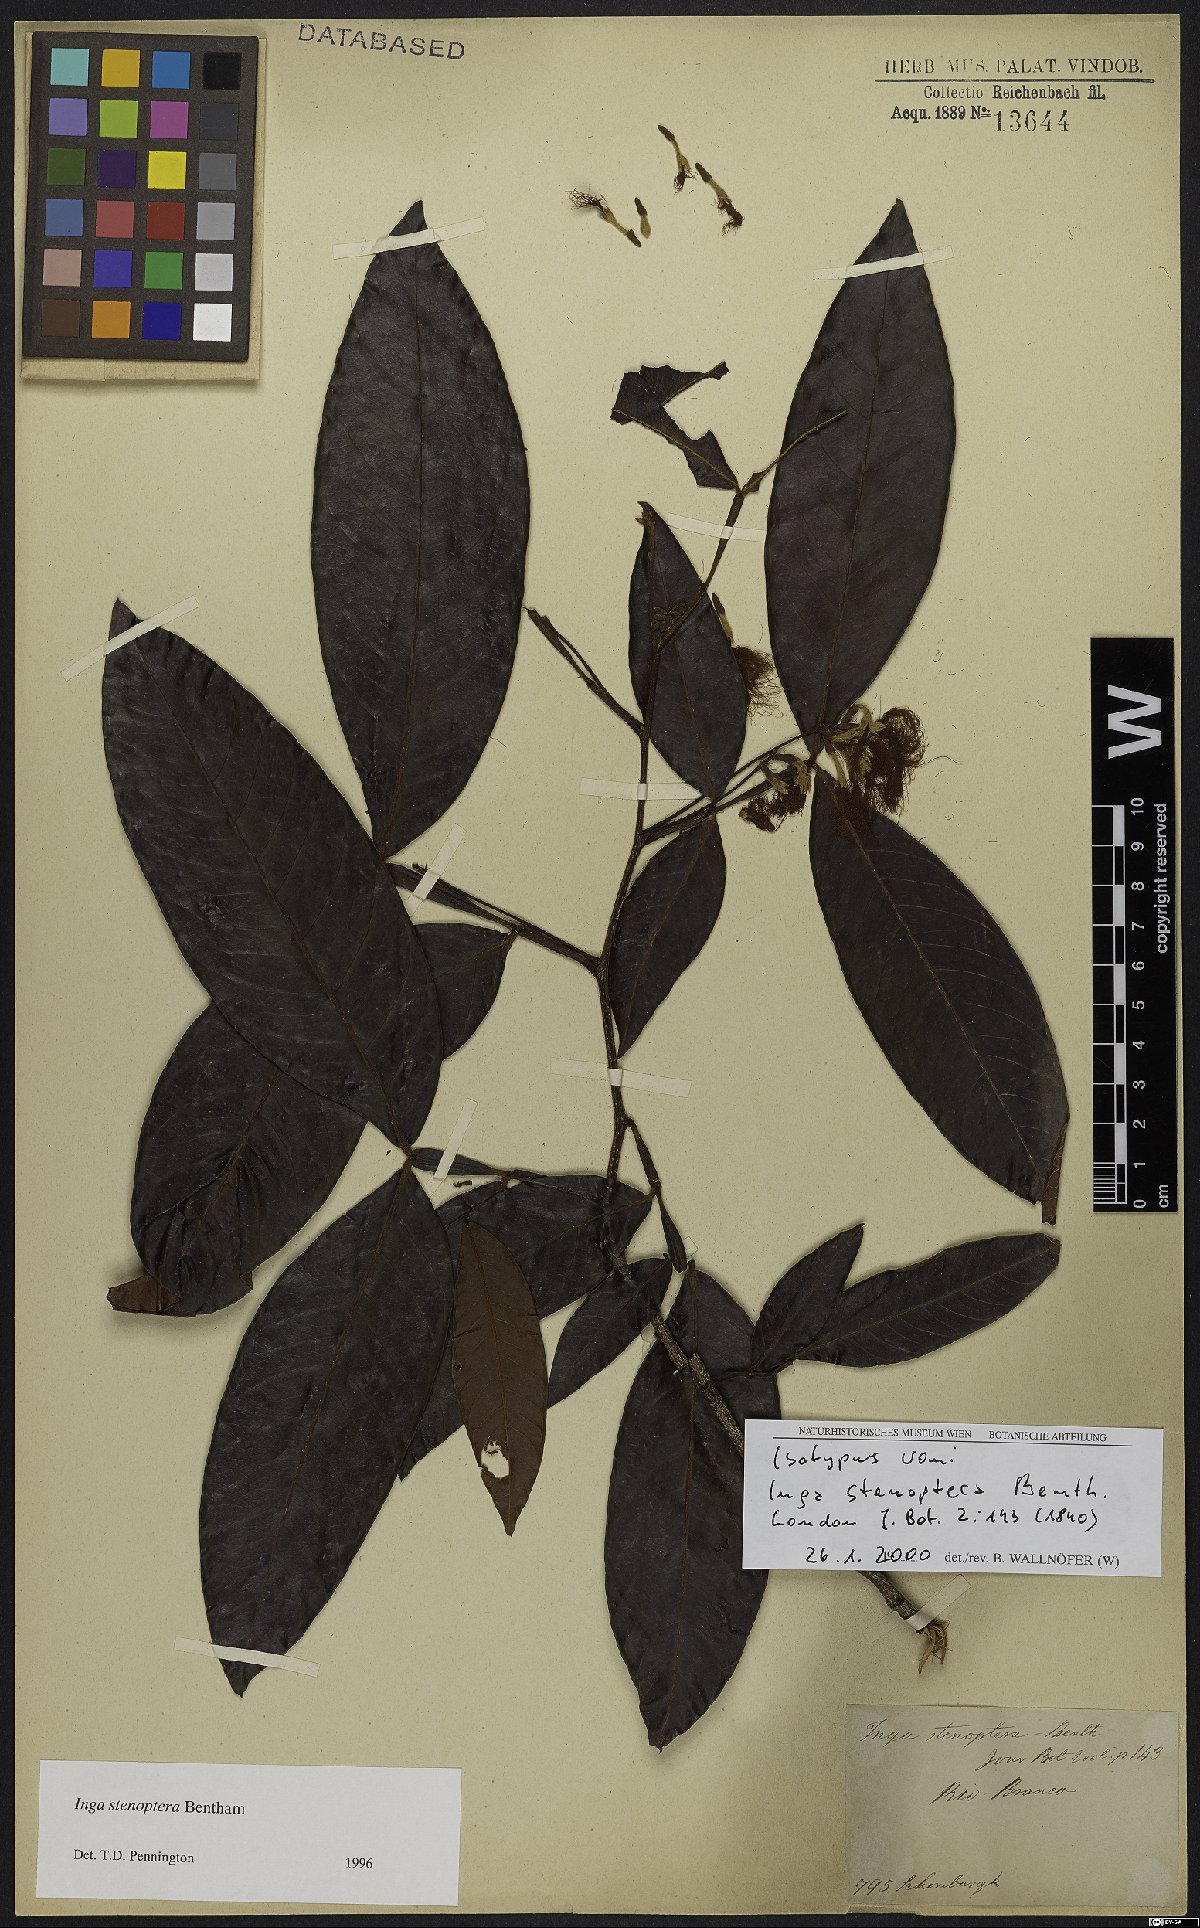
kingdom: Plantae
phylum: Tracheophyta
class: Magnoliopsida
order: Fabales
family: Fabaceae
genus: Inga
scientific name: Inga stenoptera
